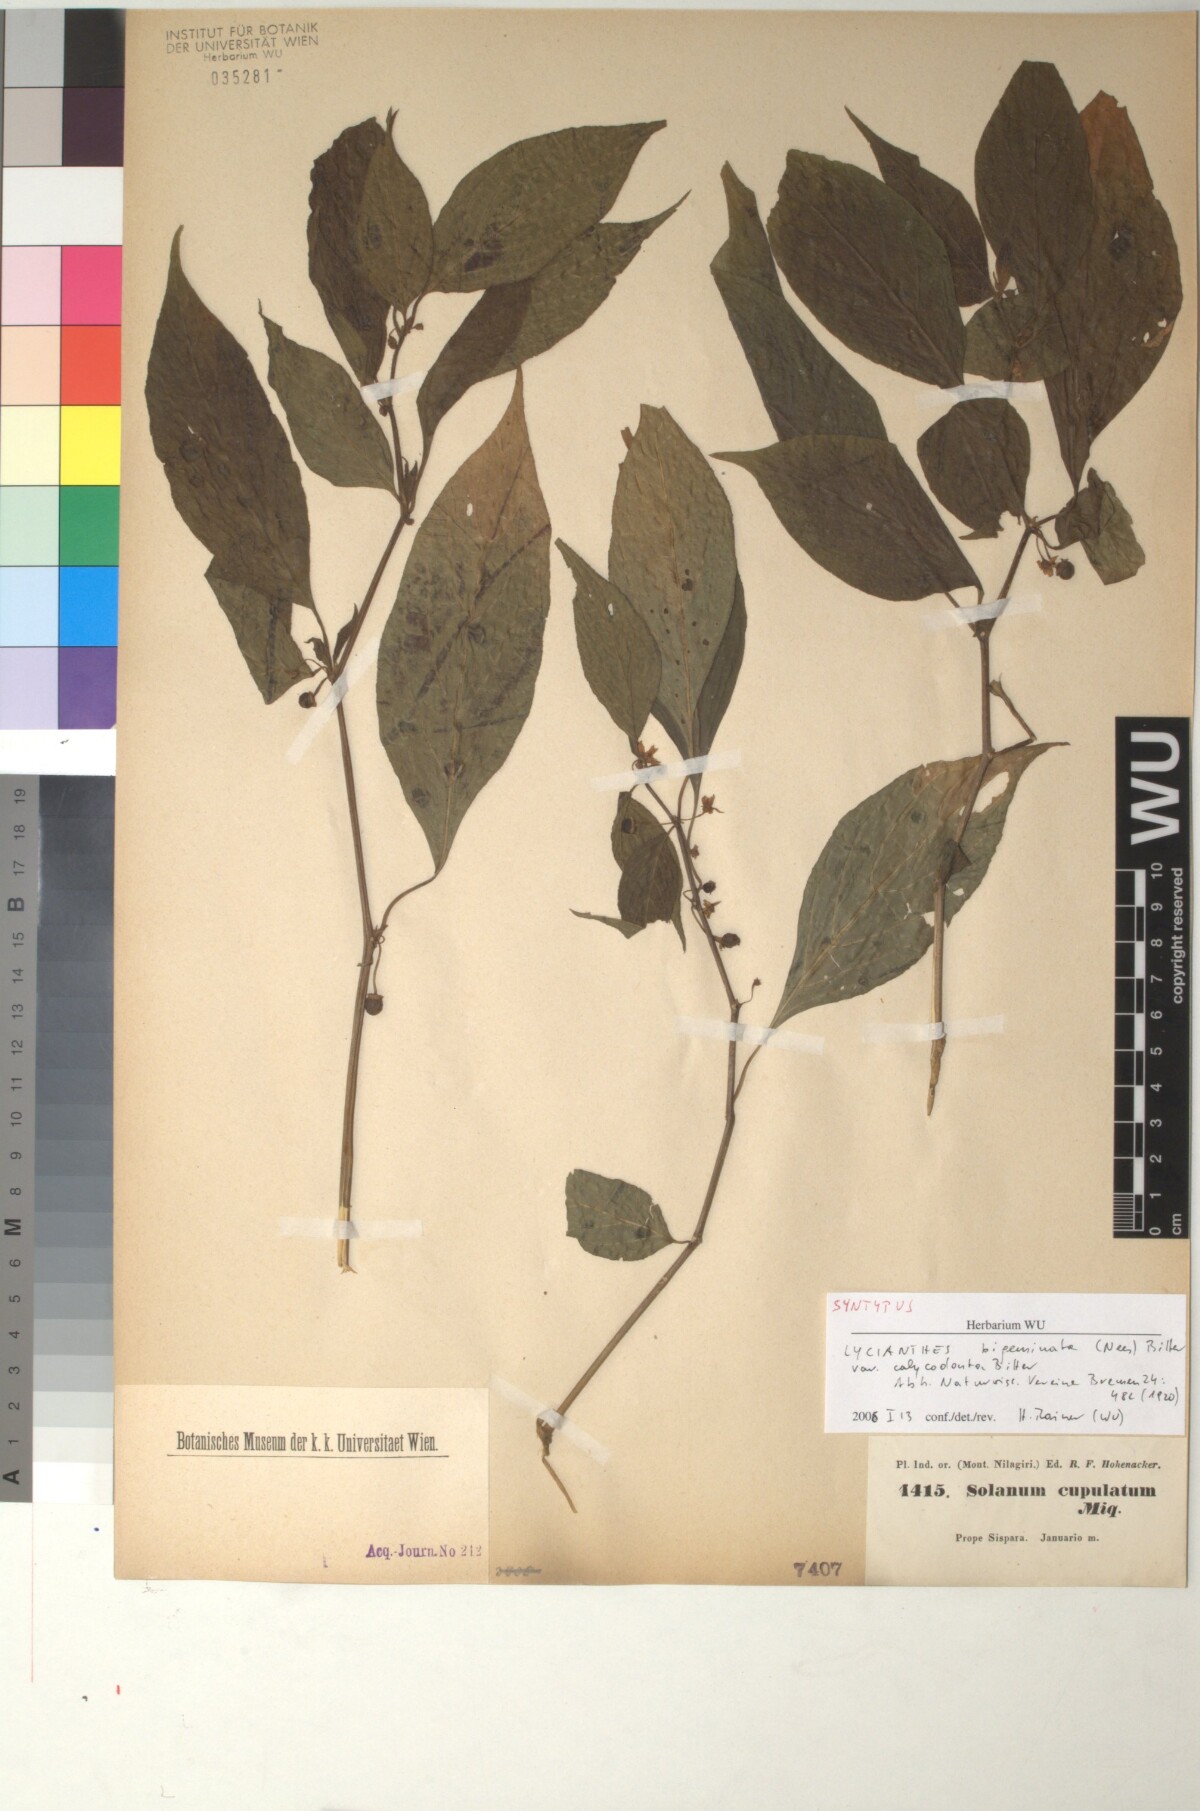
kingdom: Plantae
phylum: Tracheophyta
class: Magnoliopsida
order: Solanales
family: Solanaceae
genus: Lycianthes
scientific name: Lycianthes laevis
